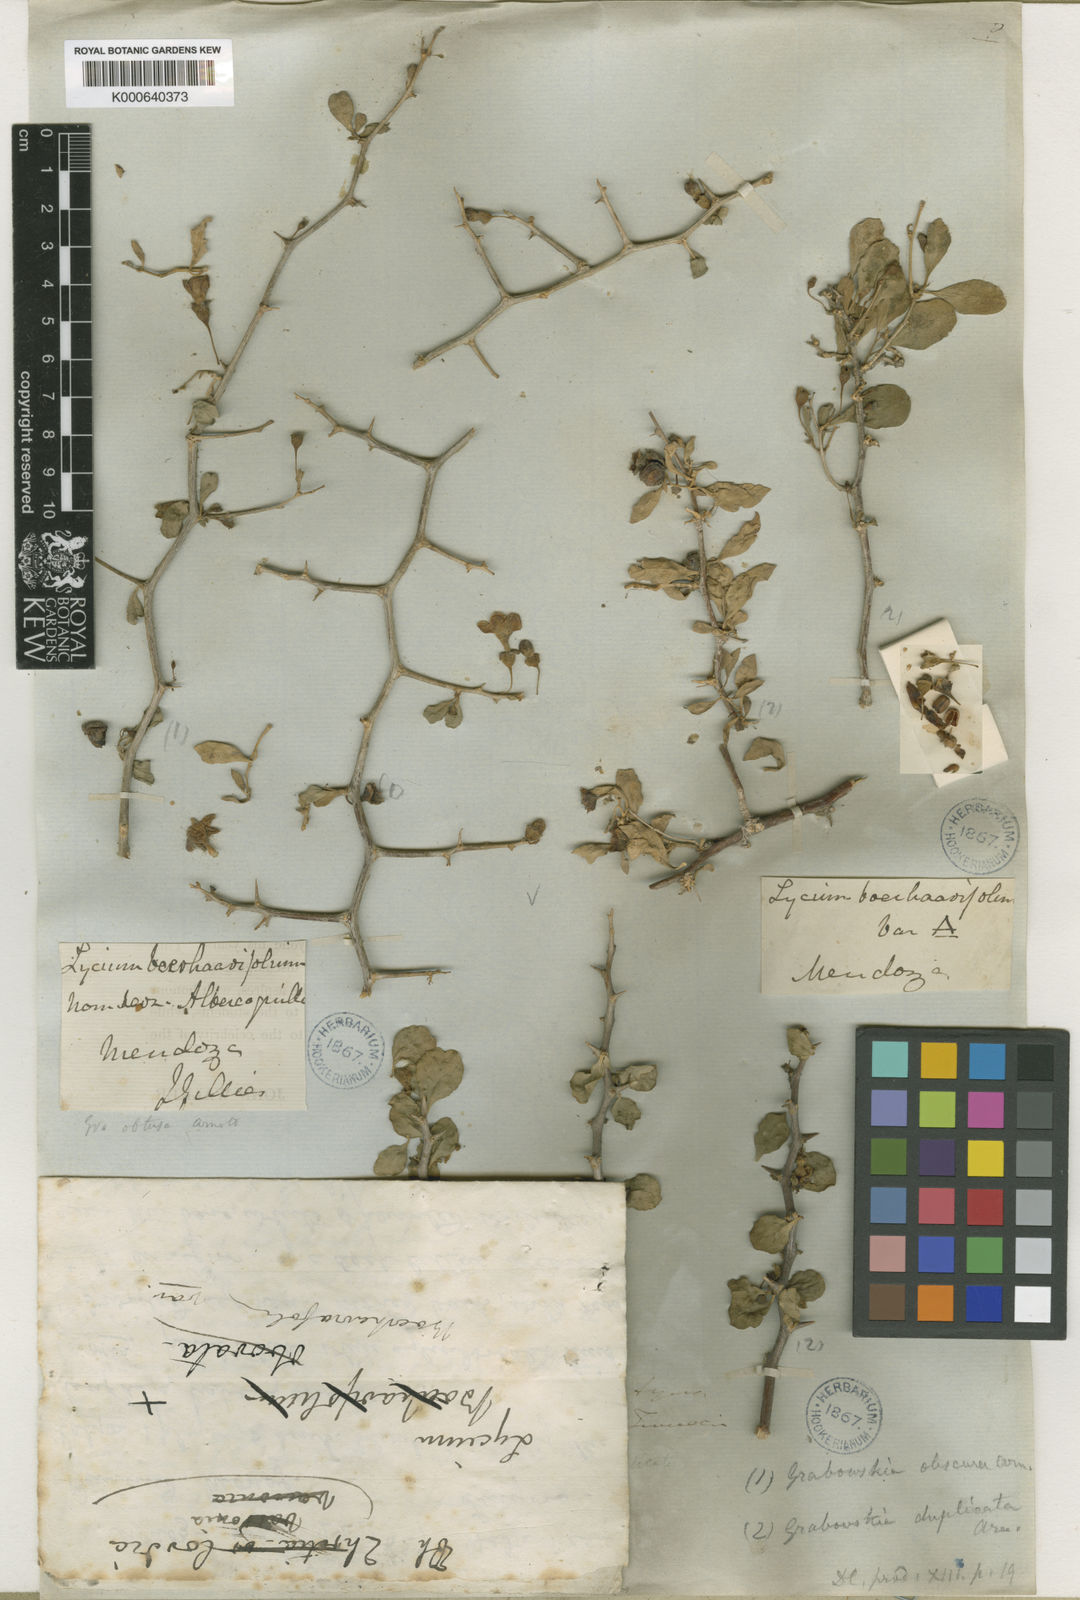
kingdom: Plantae
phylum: Tracheophyta
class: Magnoliopsida
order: Solanales
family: Solanaceae
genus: Lycium
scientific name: Lycium boerhaaviifolium
